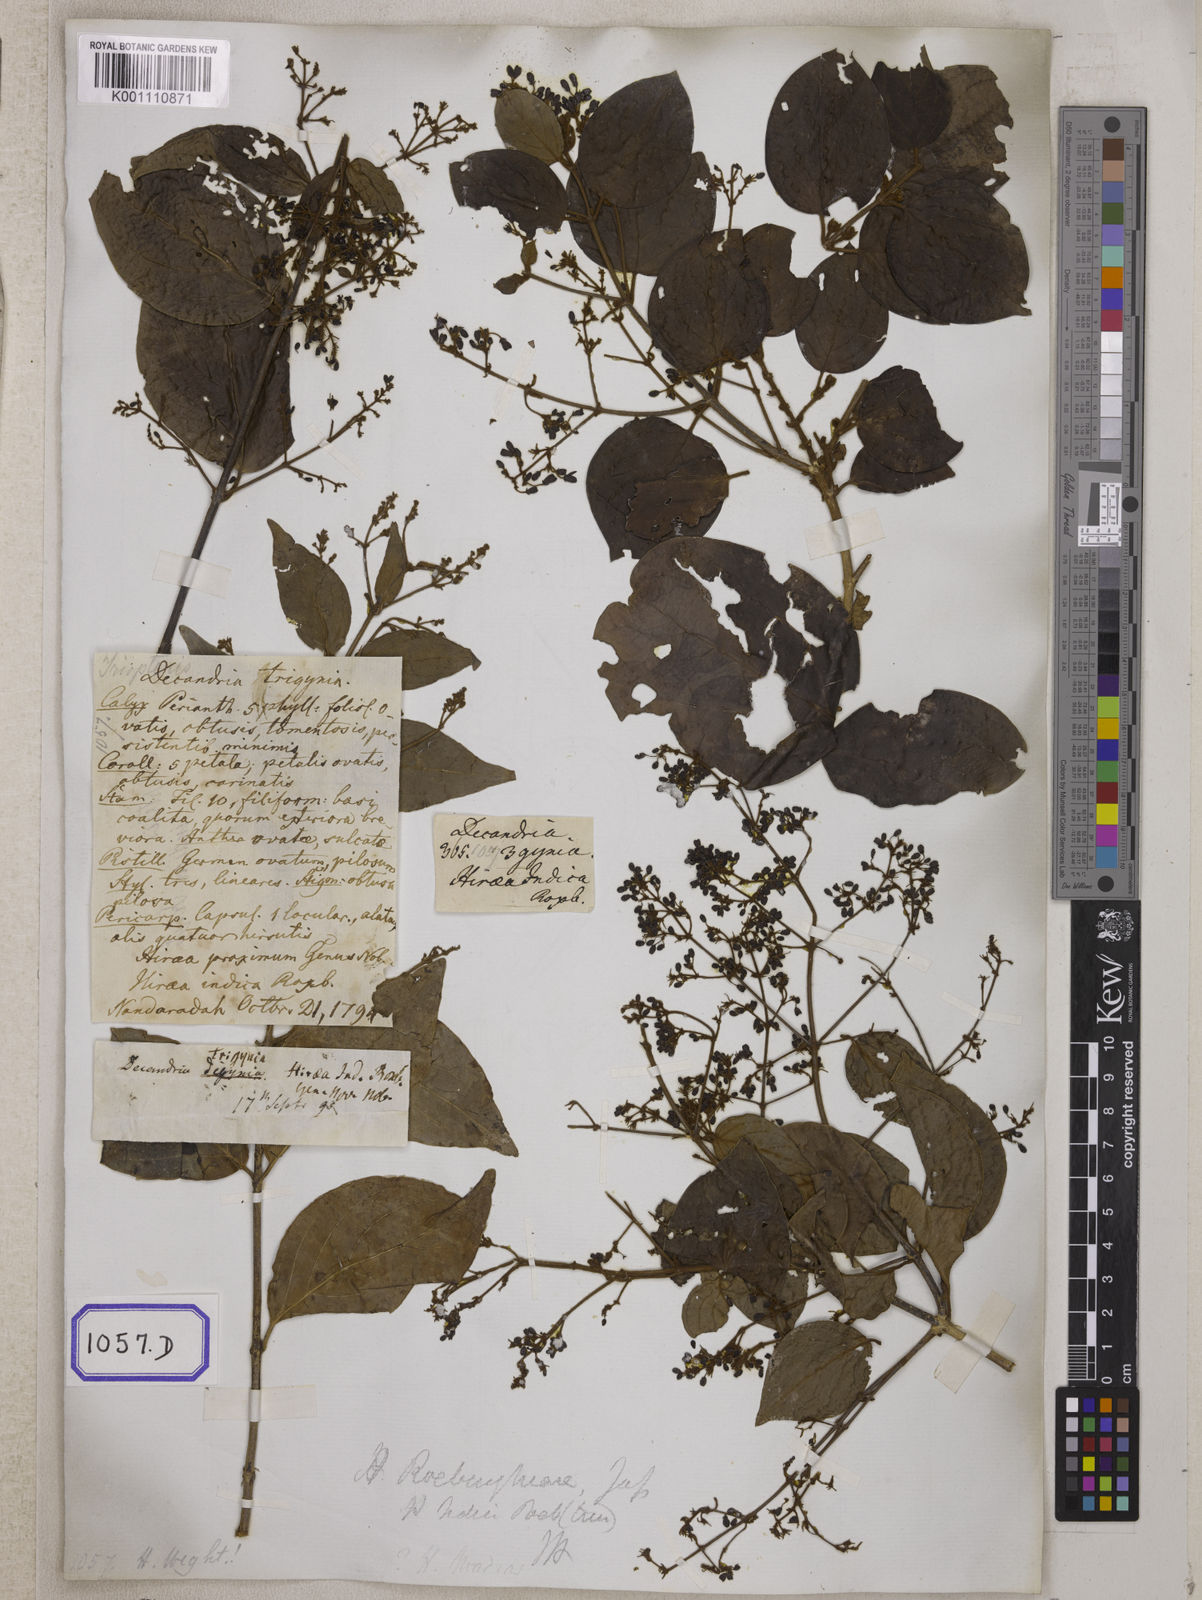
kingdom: Plantae
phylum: Tracheophyta
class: Magnoliopsida
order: Malpighiales
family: Malpighiaceae
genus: Aspidopterys
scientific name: Aspidopterys indica
